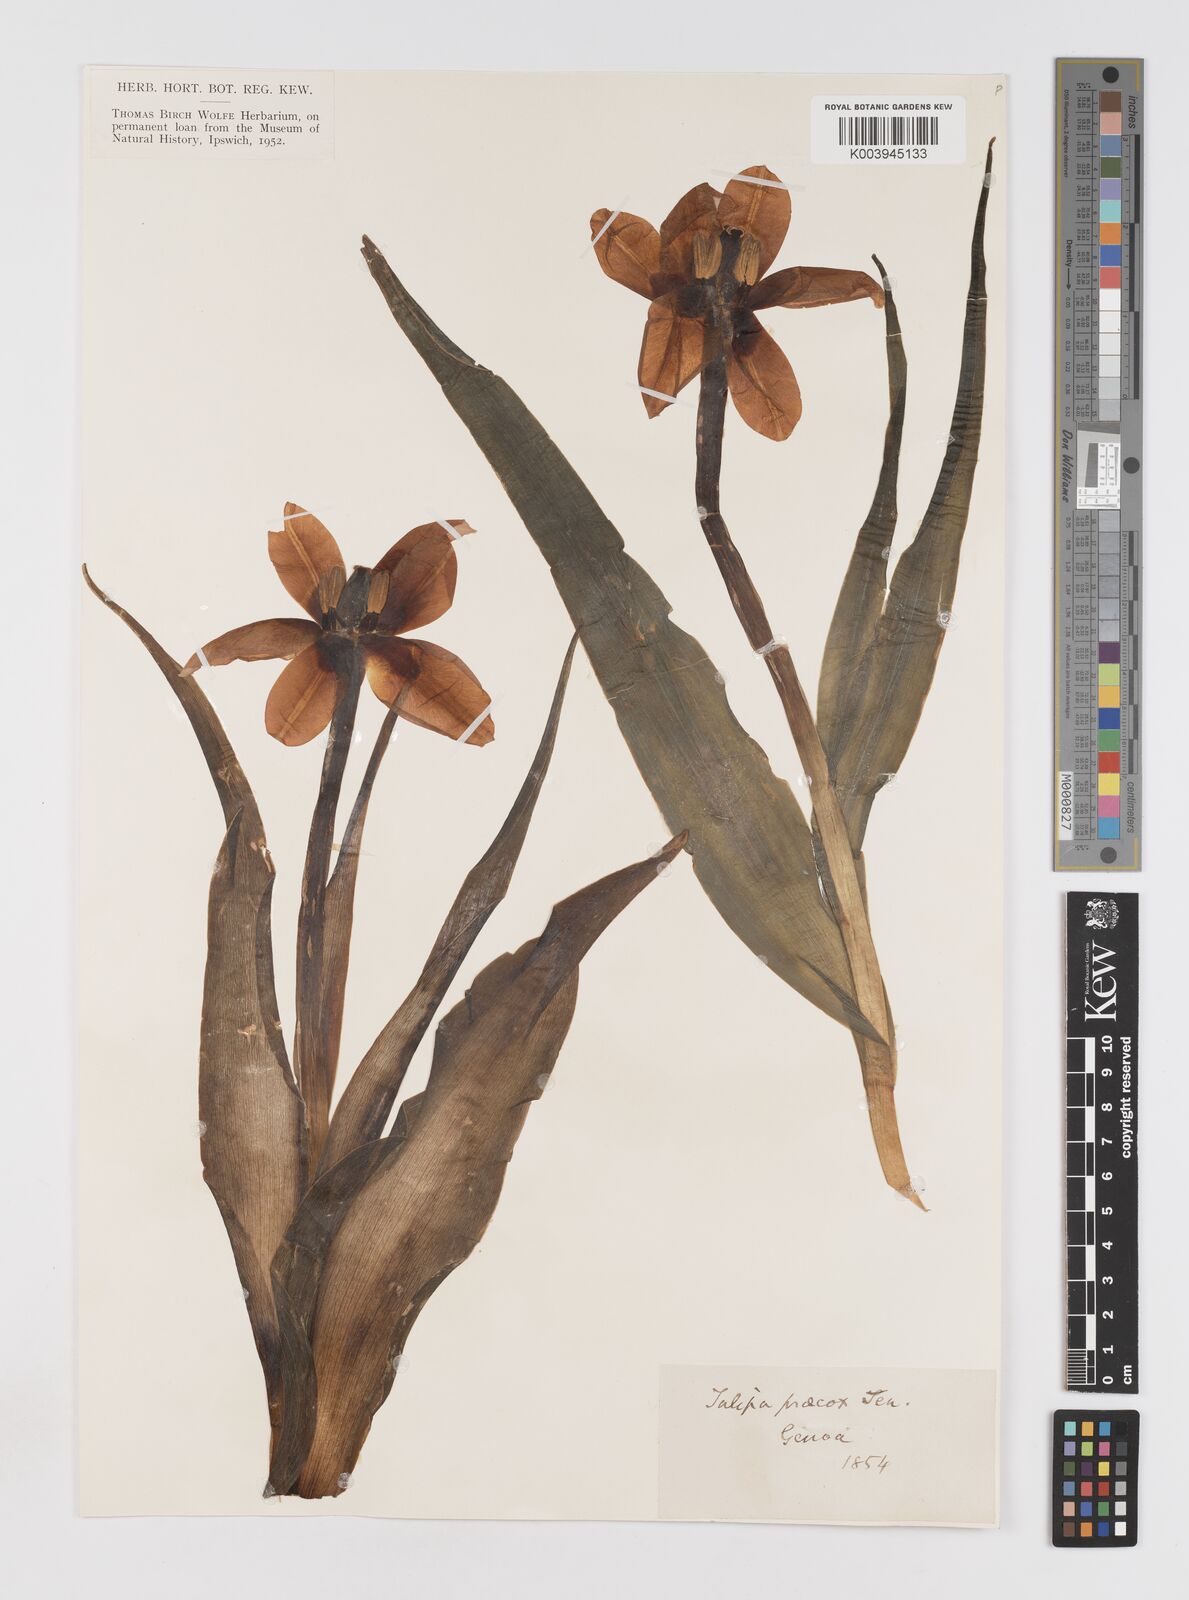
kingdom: Plantae
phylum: Tracheophyta
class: Liliopsida
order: Liliales
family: Liliaceae
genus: Tulipa
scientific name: Tulipa
